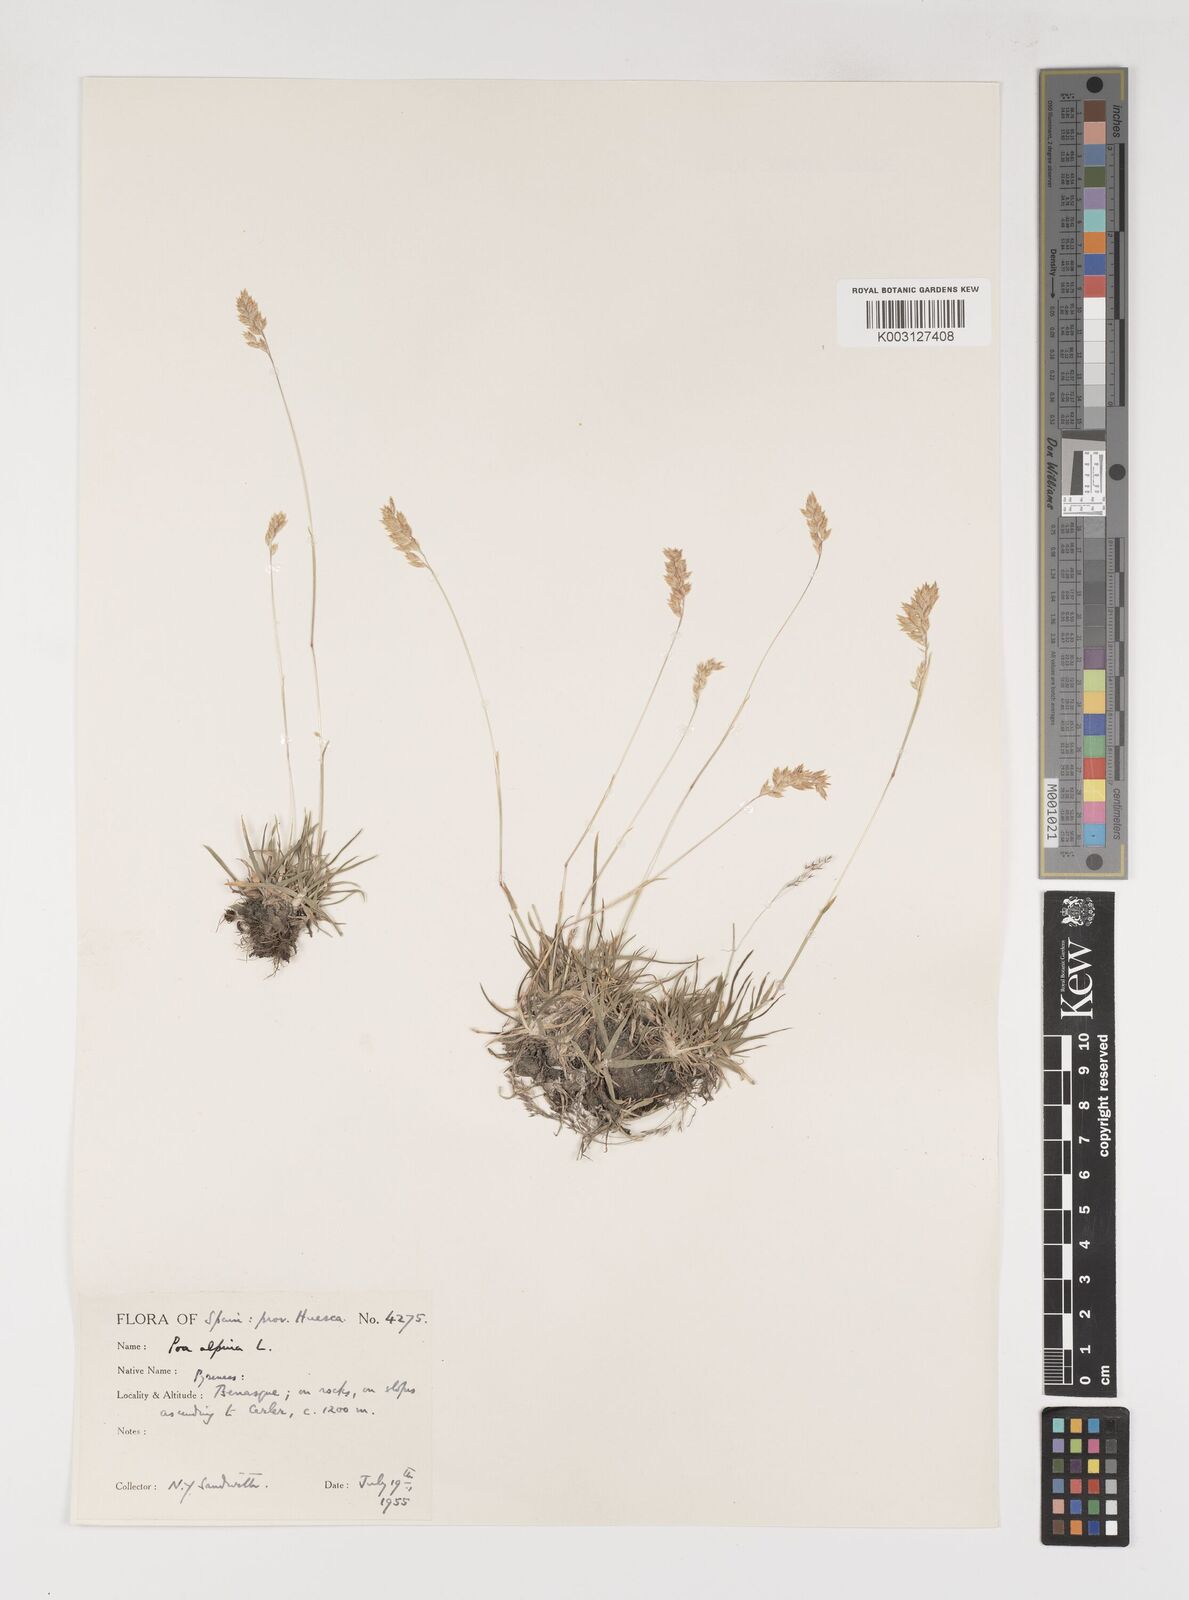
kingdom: Plantae
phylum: Tracheophyta
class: Liliopsida
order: Poales
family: Poaceae
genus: Poa
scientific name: Poa alpina
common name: Alpine bluegrass
